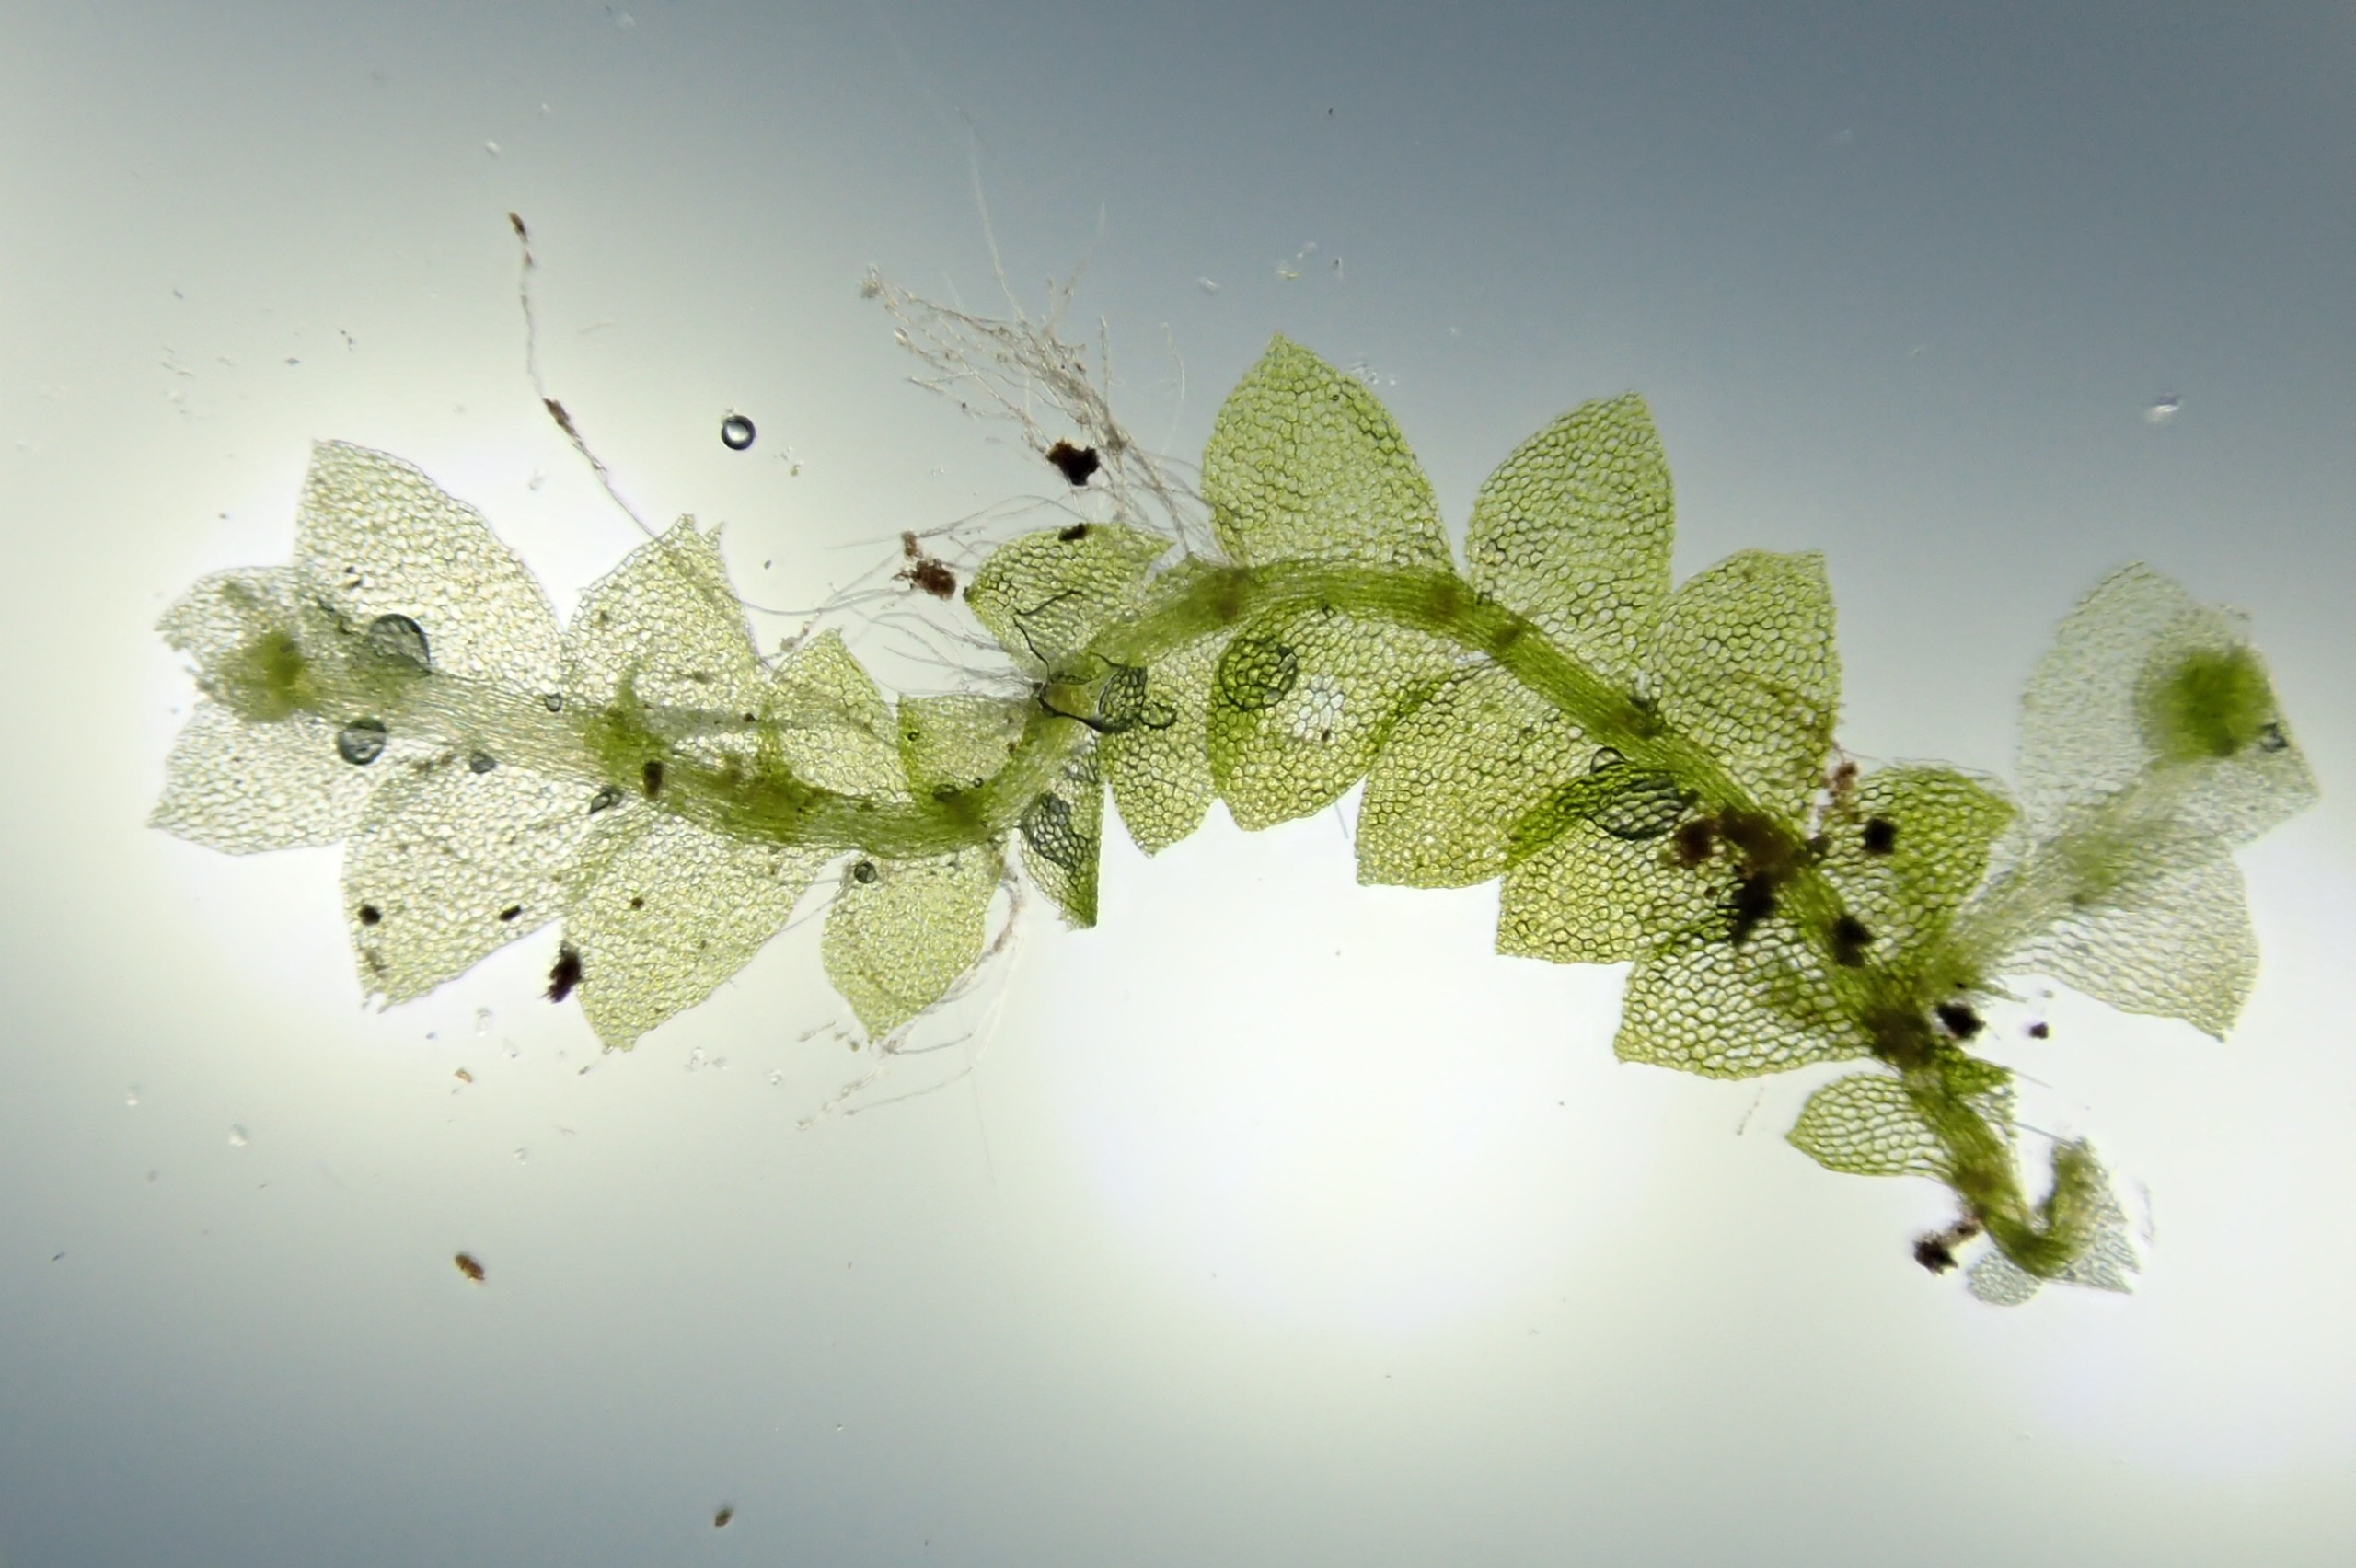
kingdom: Plantae
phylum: Marchantiophyta
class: Jungermanniopsida
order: Jungermanniales
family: Calypogeiaceae
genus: Calypogeia
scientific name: Calypogeia fissa
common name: Tvespidset sækmos
